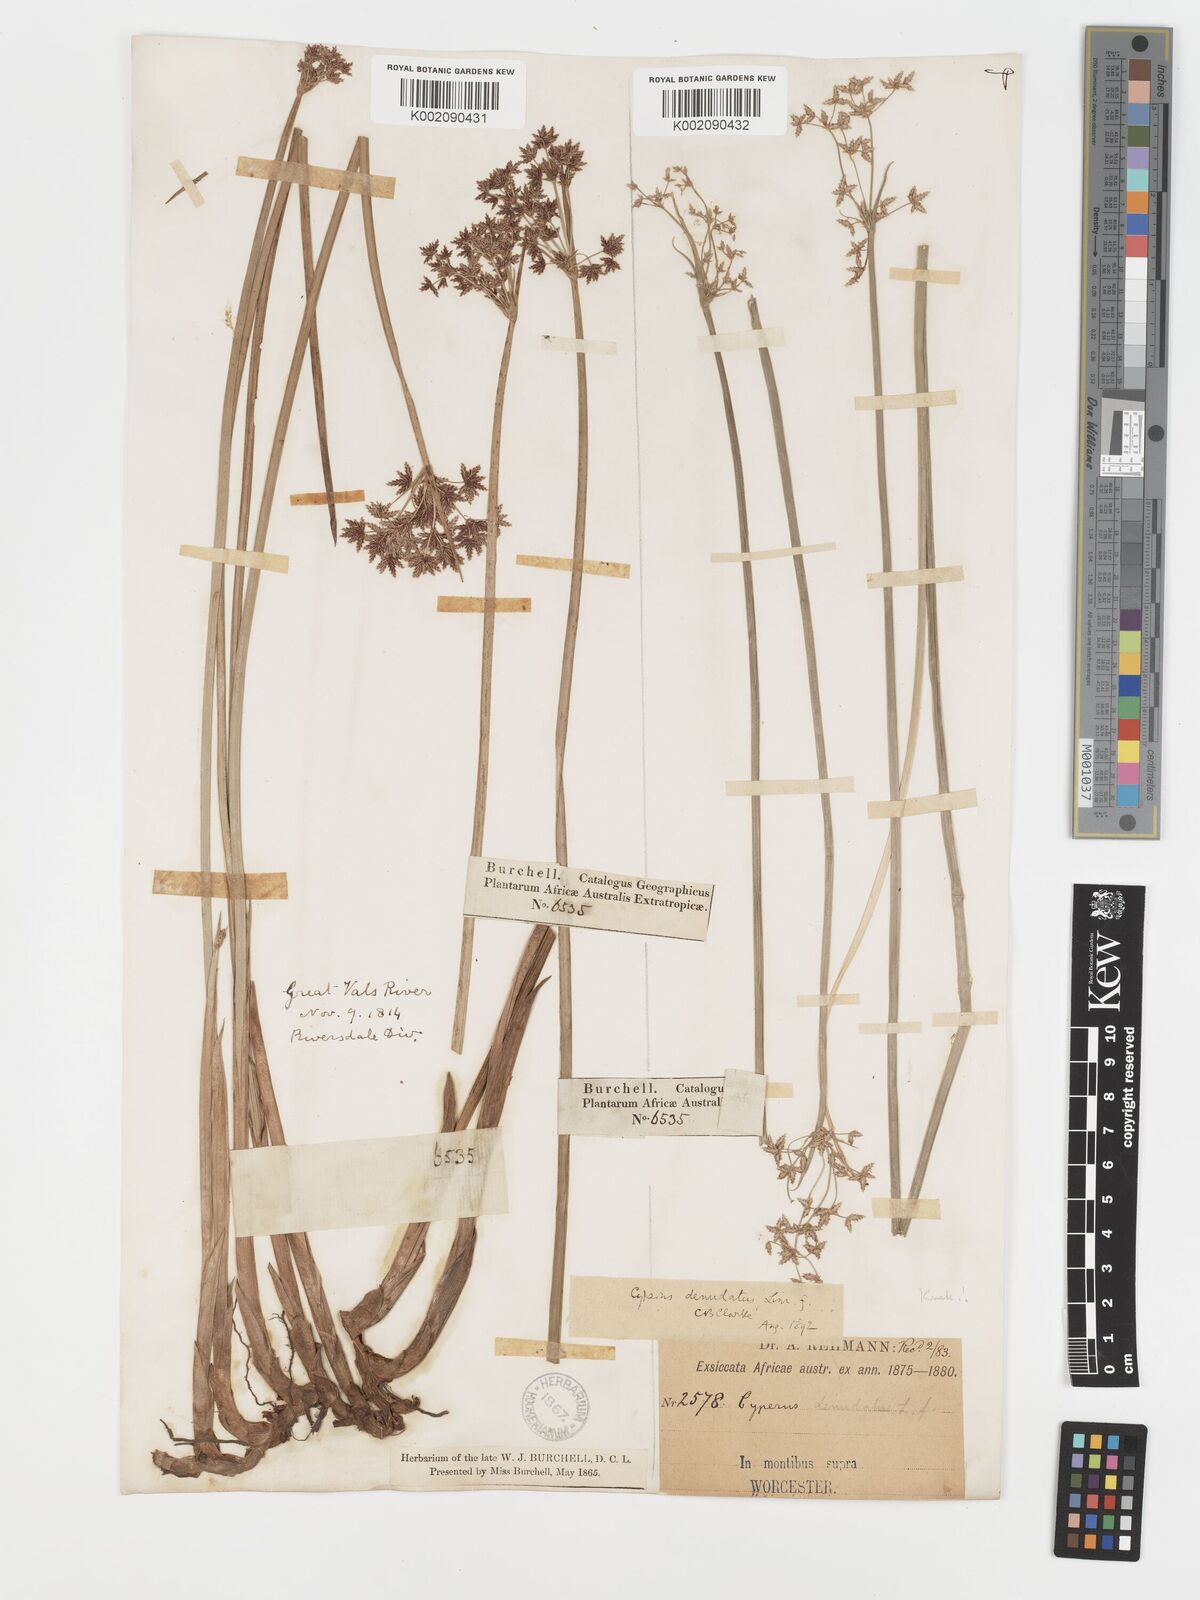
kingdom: Plantae
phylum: Tracheophyta
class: Liliopsida
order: Poales
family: Cyperaceae
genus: Cyperus
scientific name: Cyperus denudatus
